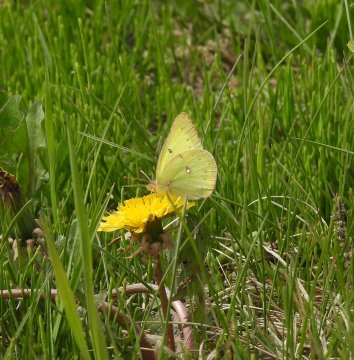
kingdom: Animalia
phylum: Arthropoda
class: Insecta
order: Lepidoptera
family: Pieridae
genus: Colias
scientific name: Colias philodice
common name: Clouded Sulphur
